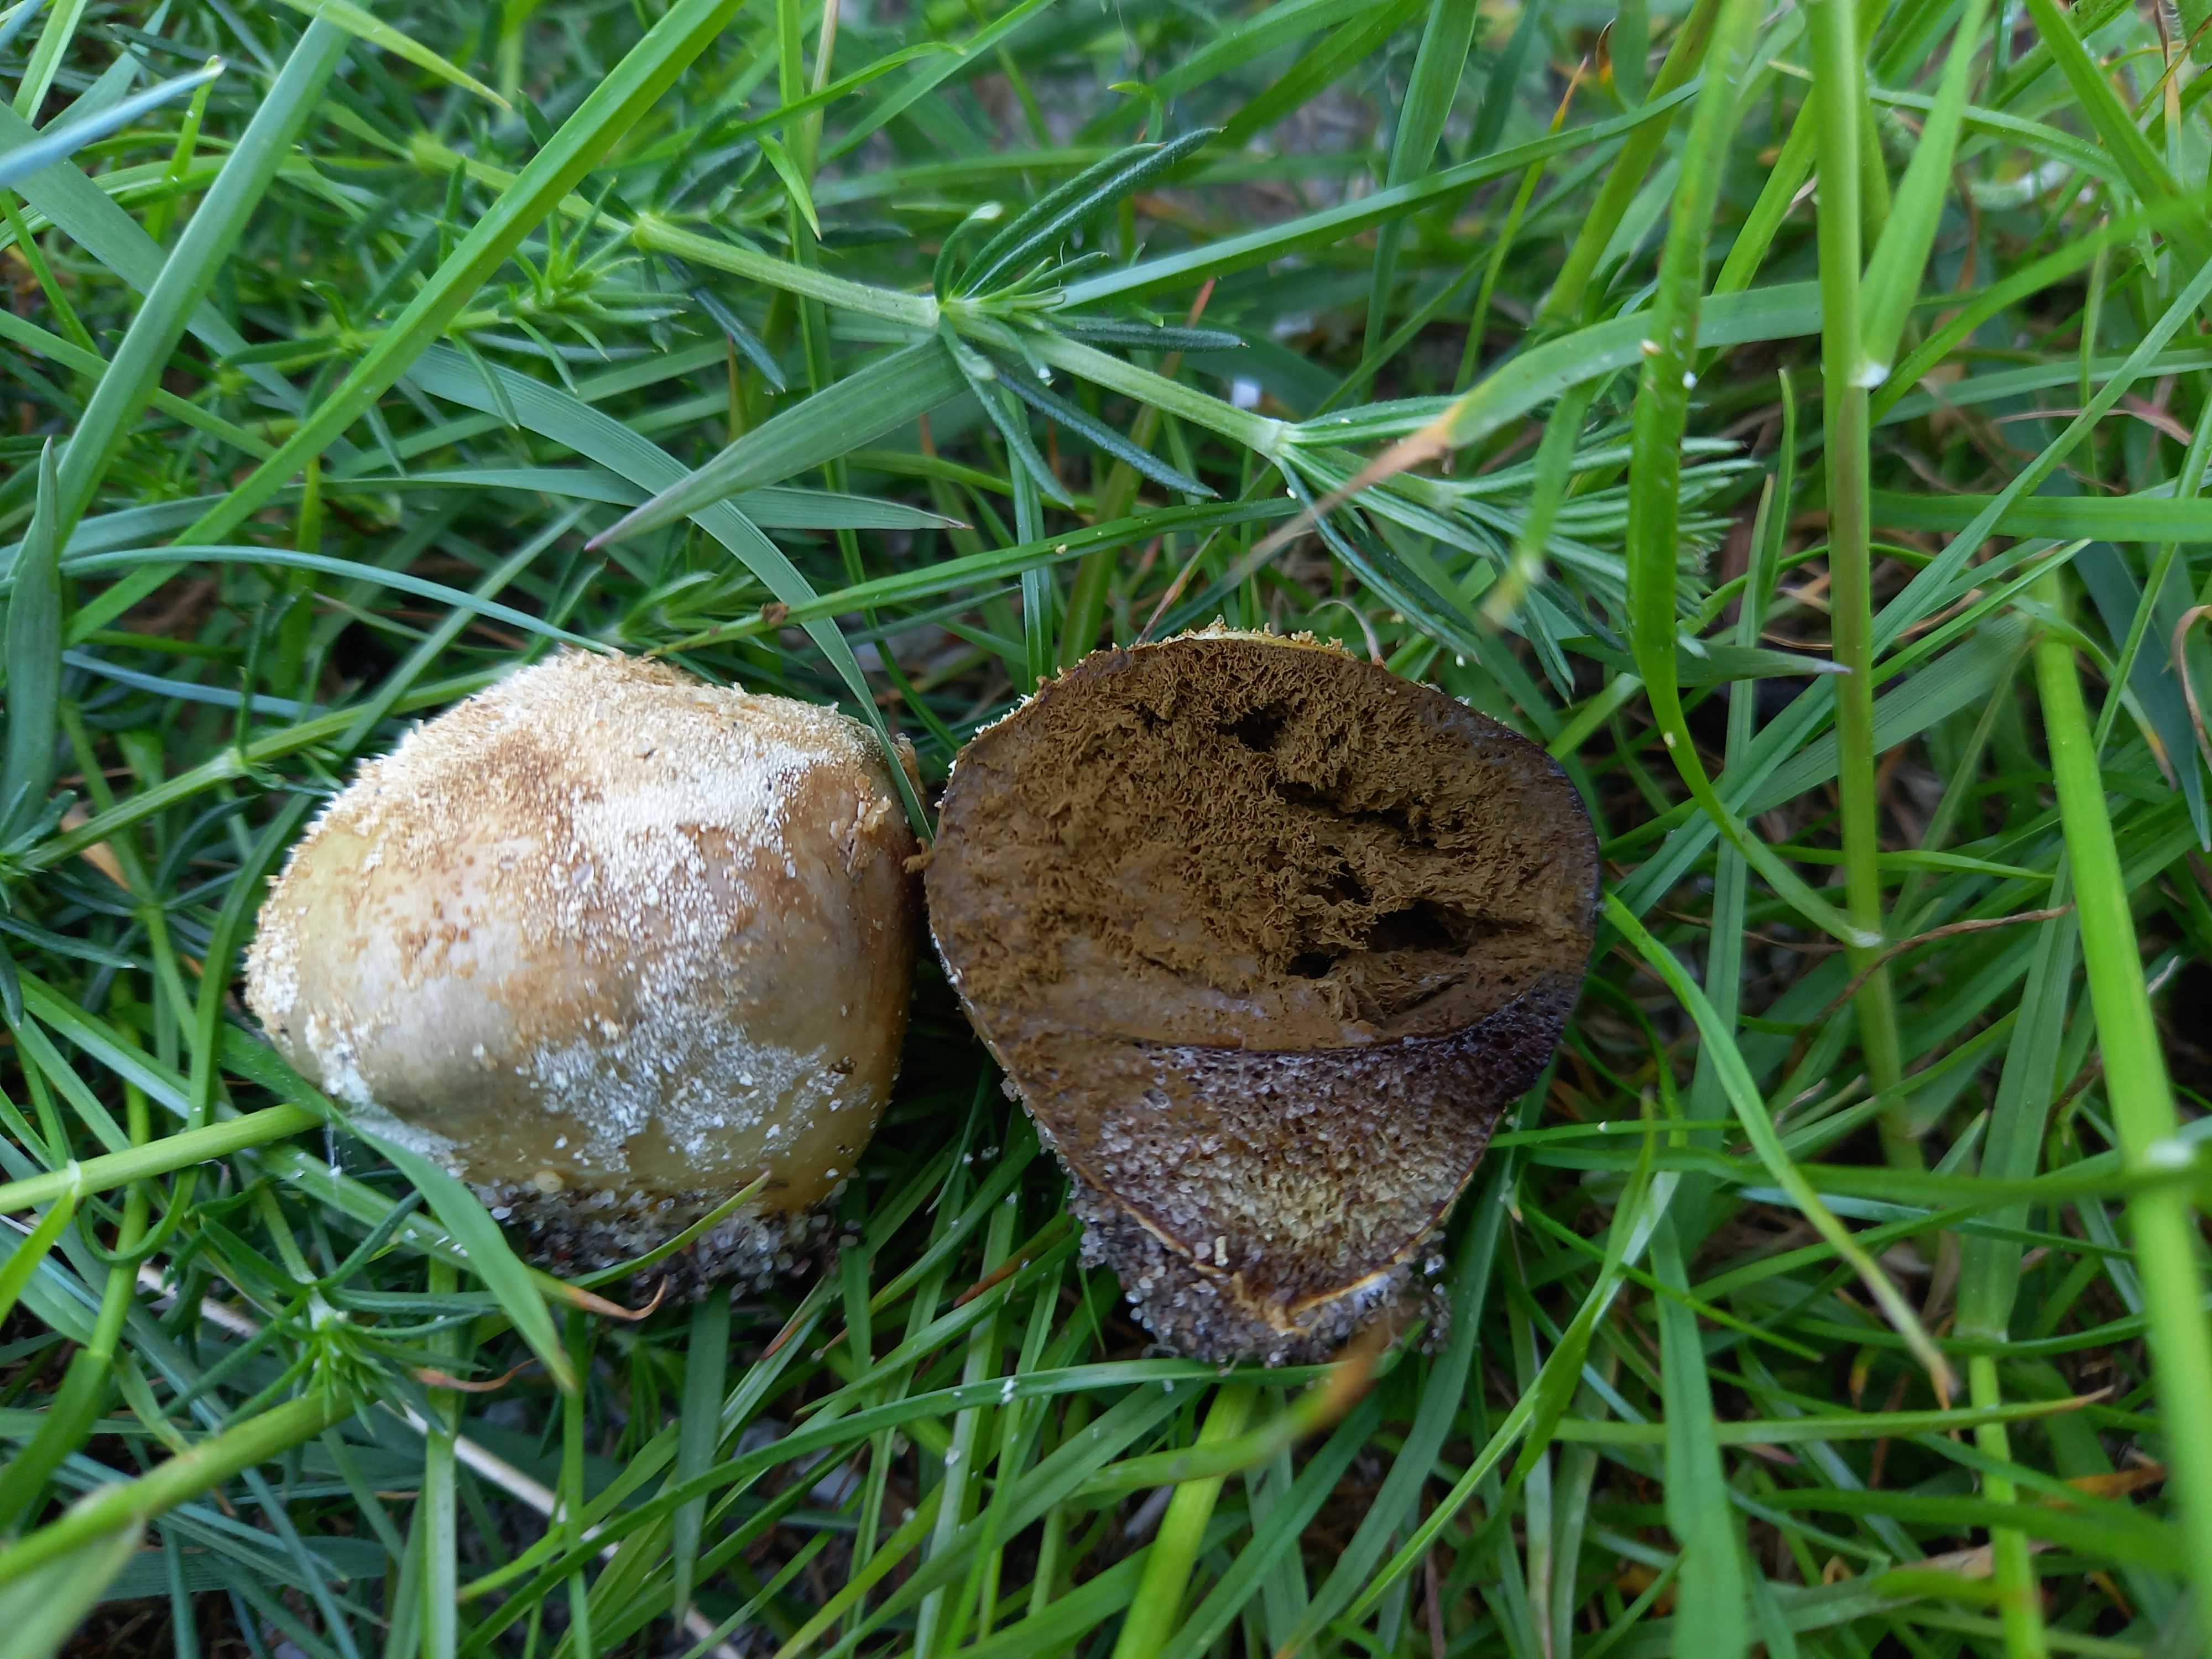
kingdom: Fungi
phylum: Basidiomycota
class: Agaricomycetes
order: Agaricales
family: Lycoperdaceae
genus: Lycoperdon
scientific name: Lycoperdon pratense
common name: flad støvbold
